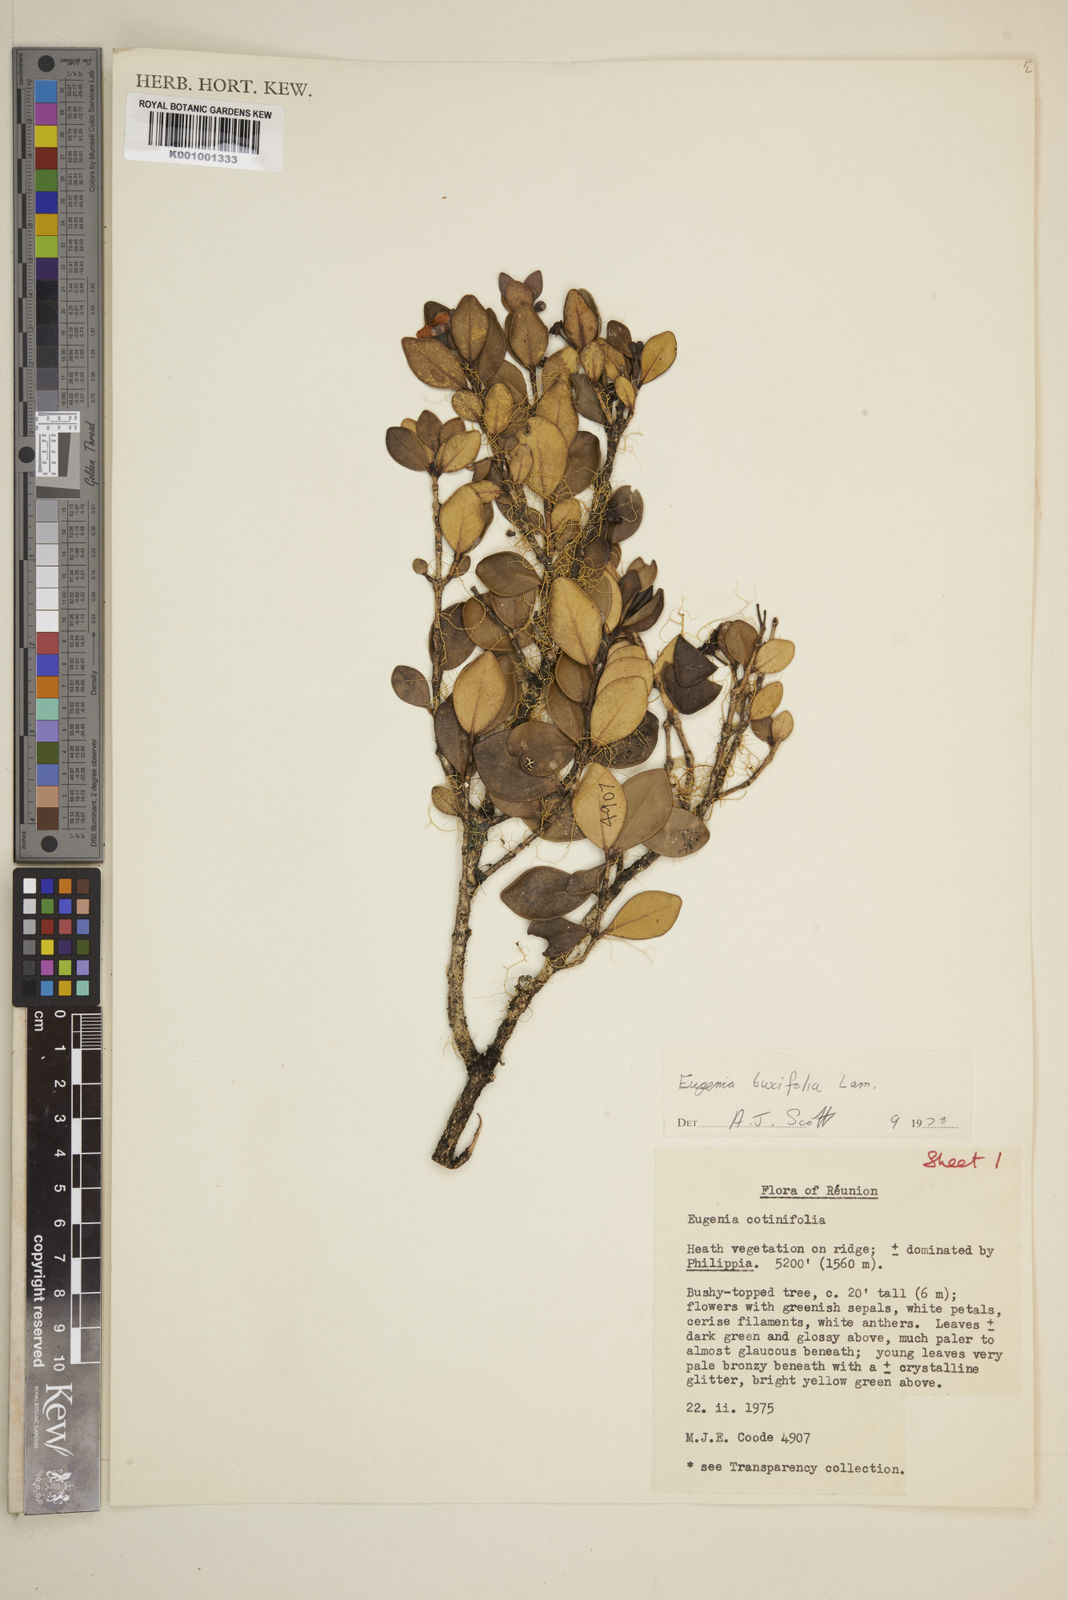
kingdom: Plantae
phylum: Tracheophyta
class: Magnoliopsida
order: Myrtales
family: Myrtaceae
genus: Eugenia
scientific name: Eugenia buxifolia
